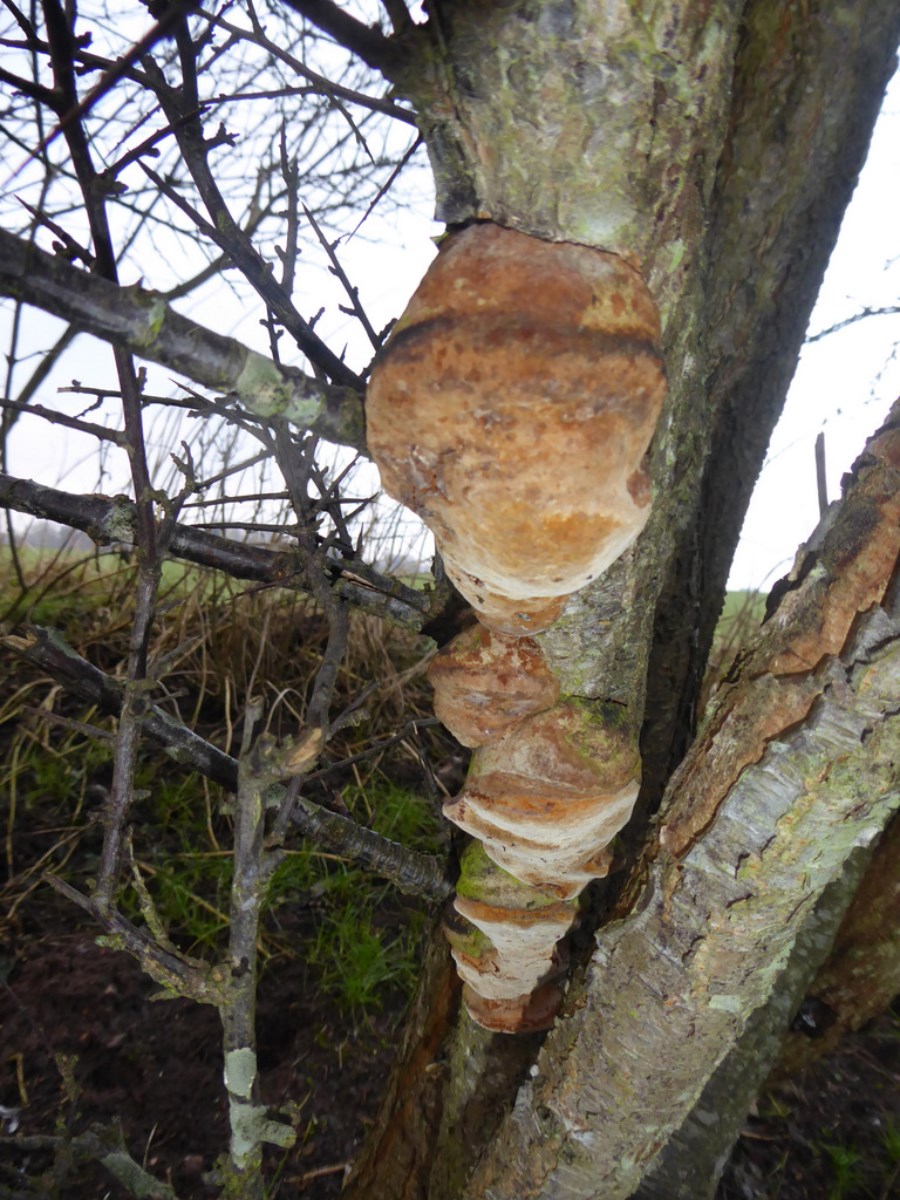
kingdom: Fungi
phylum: Basidiomycota
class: Agaricomycetes
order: Hymenochaetales
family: Hymenochaetaceae
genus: Phellinus
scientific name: Phellinus pomaceus
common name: blomme-ildporesvamp
